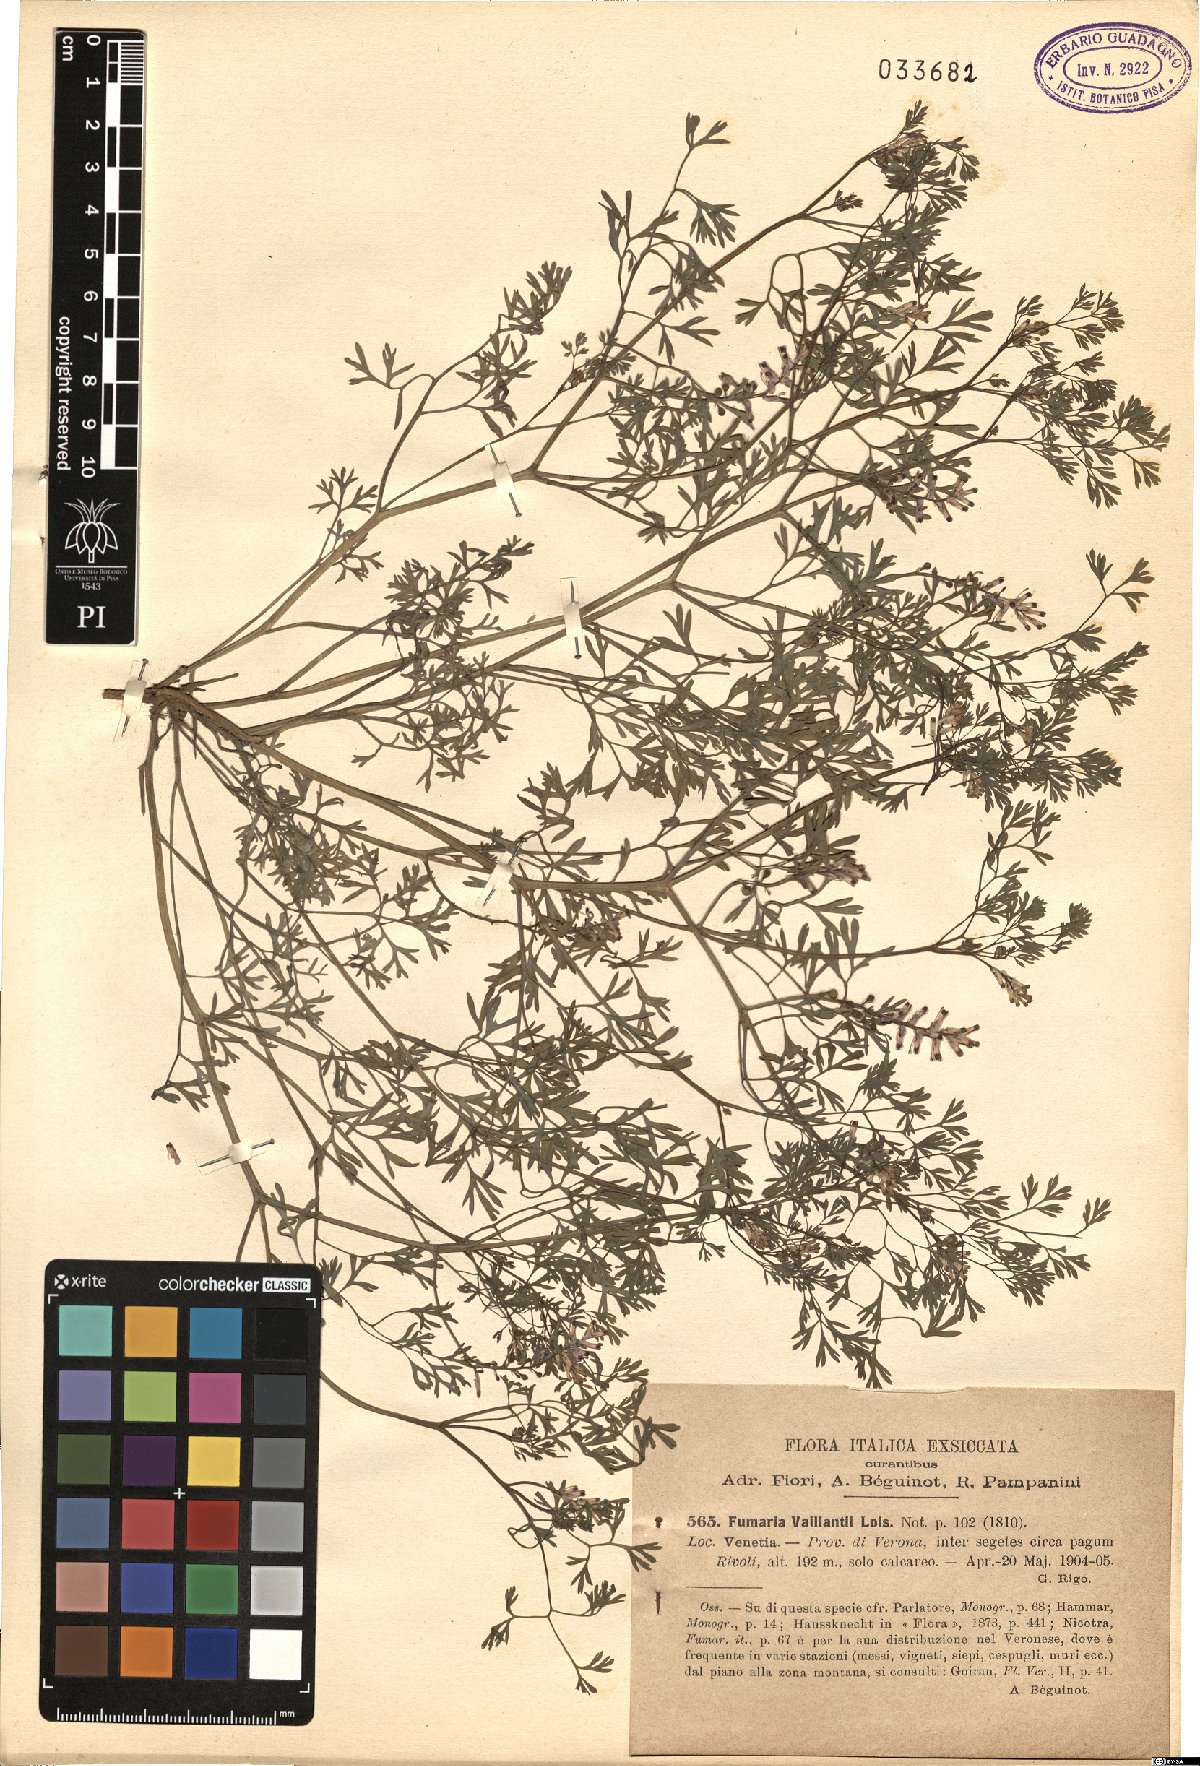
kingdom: Plantae
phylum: Tracheophyta
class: Magnoliopsida
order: Ranunculales
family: Papaveraceae
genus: Fumaria
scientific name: Fumaria vaillantii
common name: Few-flowered fumitory
